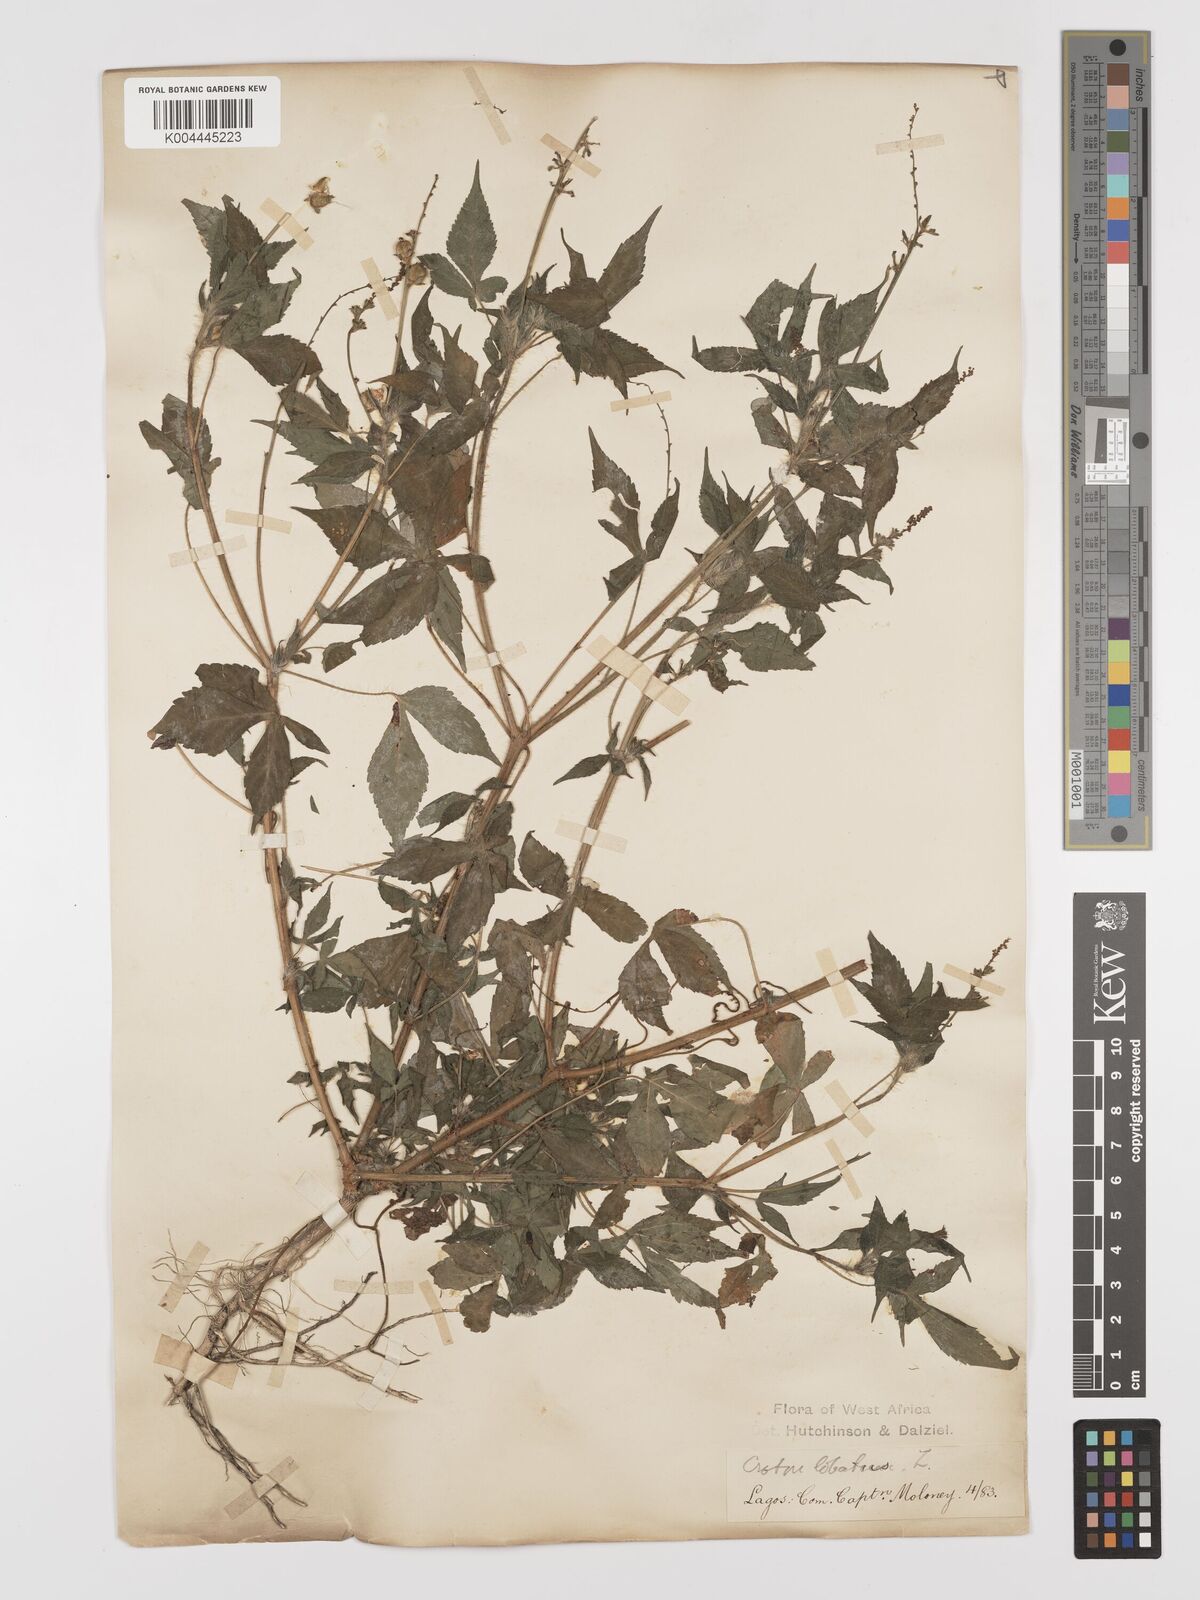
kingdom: Plantae
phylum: Tracheophyta
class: Magnoliopsida
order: Malpighiales
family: Euphorbiaceae
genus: Astraea
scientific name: Astraea lobata
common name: Lobed croton
